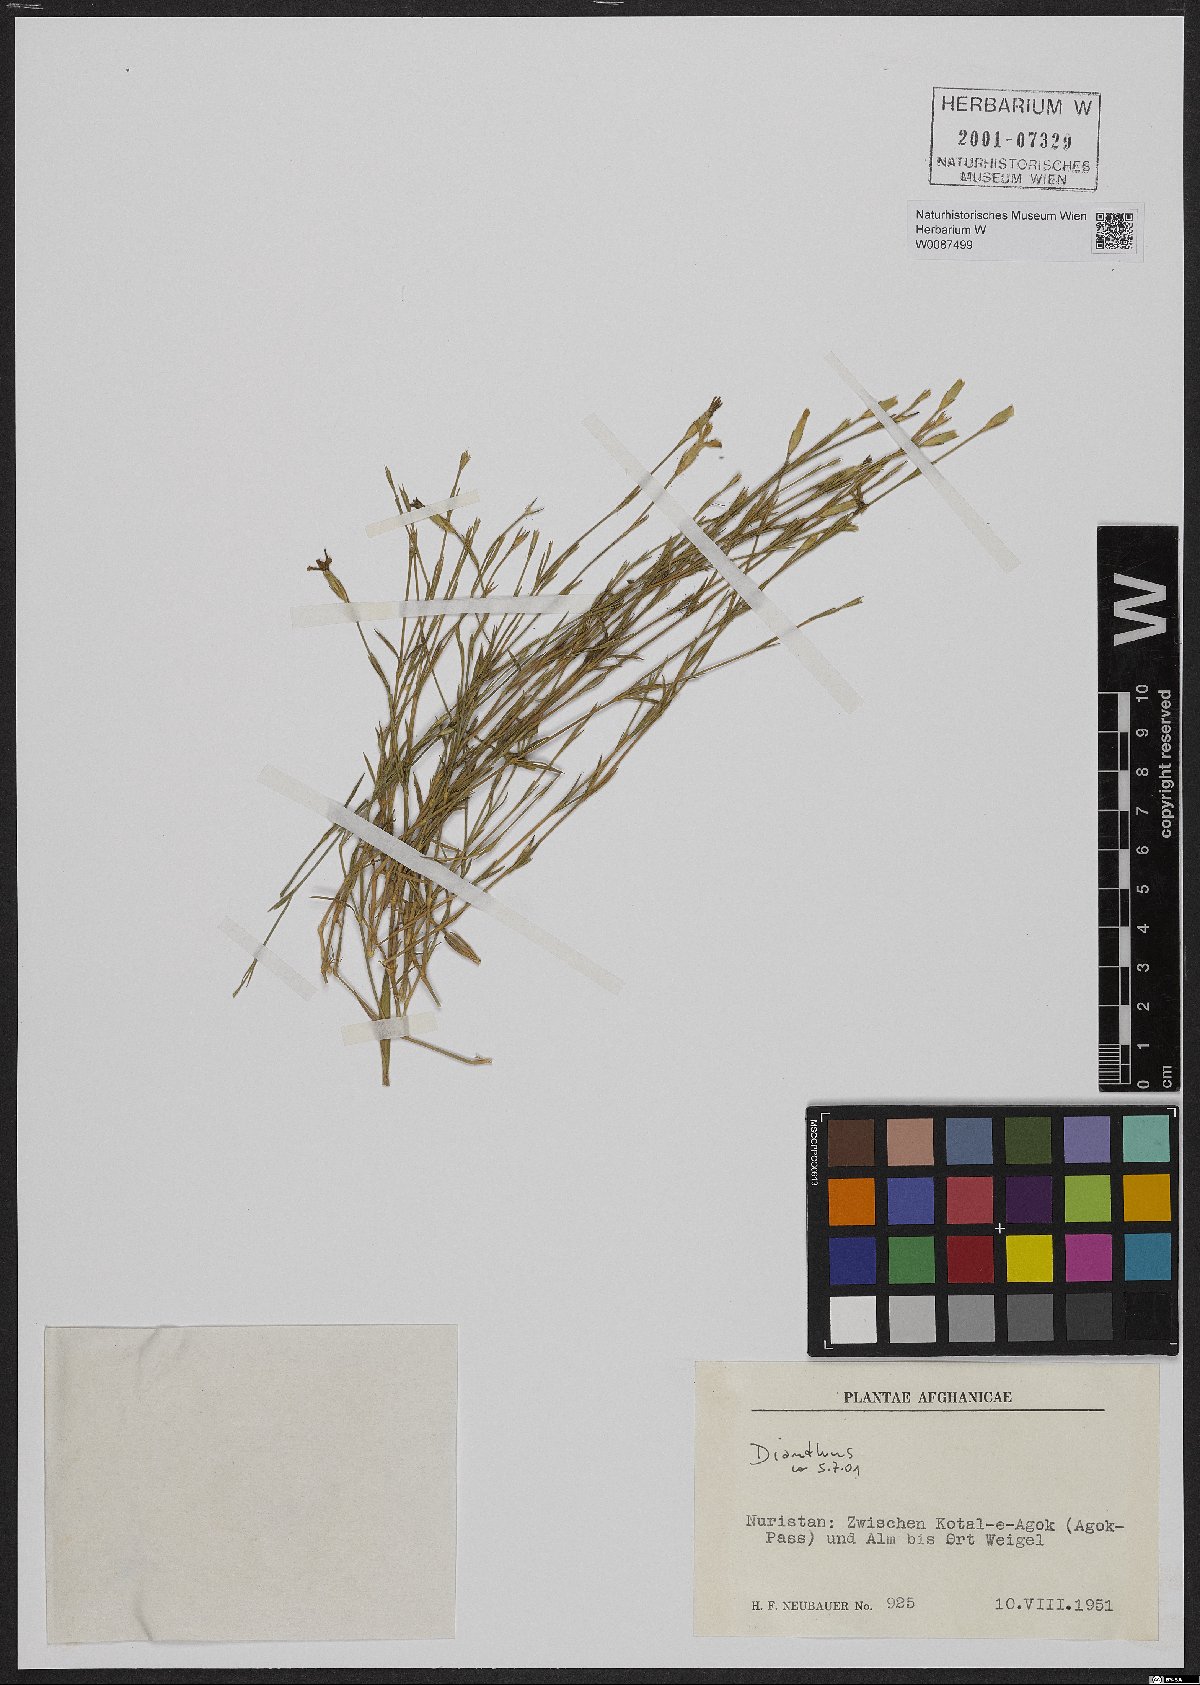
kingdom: Plantae
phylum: Tracheophyta
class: Magnoliopsida
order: Caryophyllales
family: Caryophyllaceae
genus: Dianthus
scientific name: Dianthus
